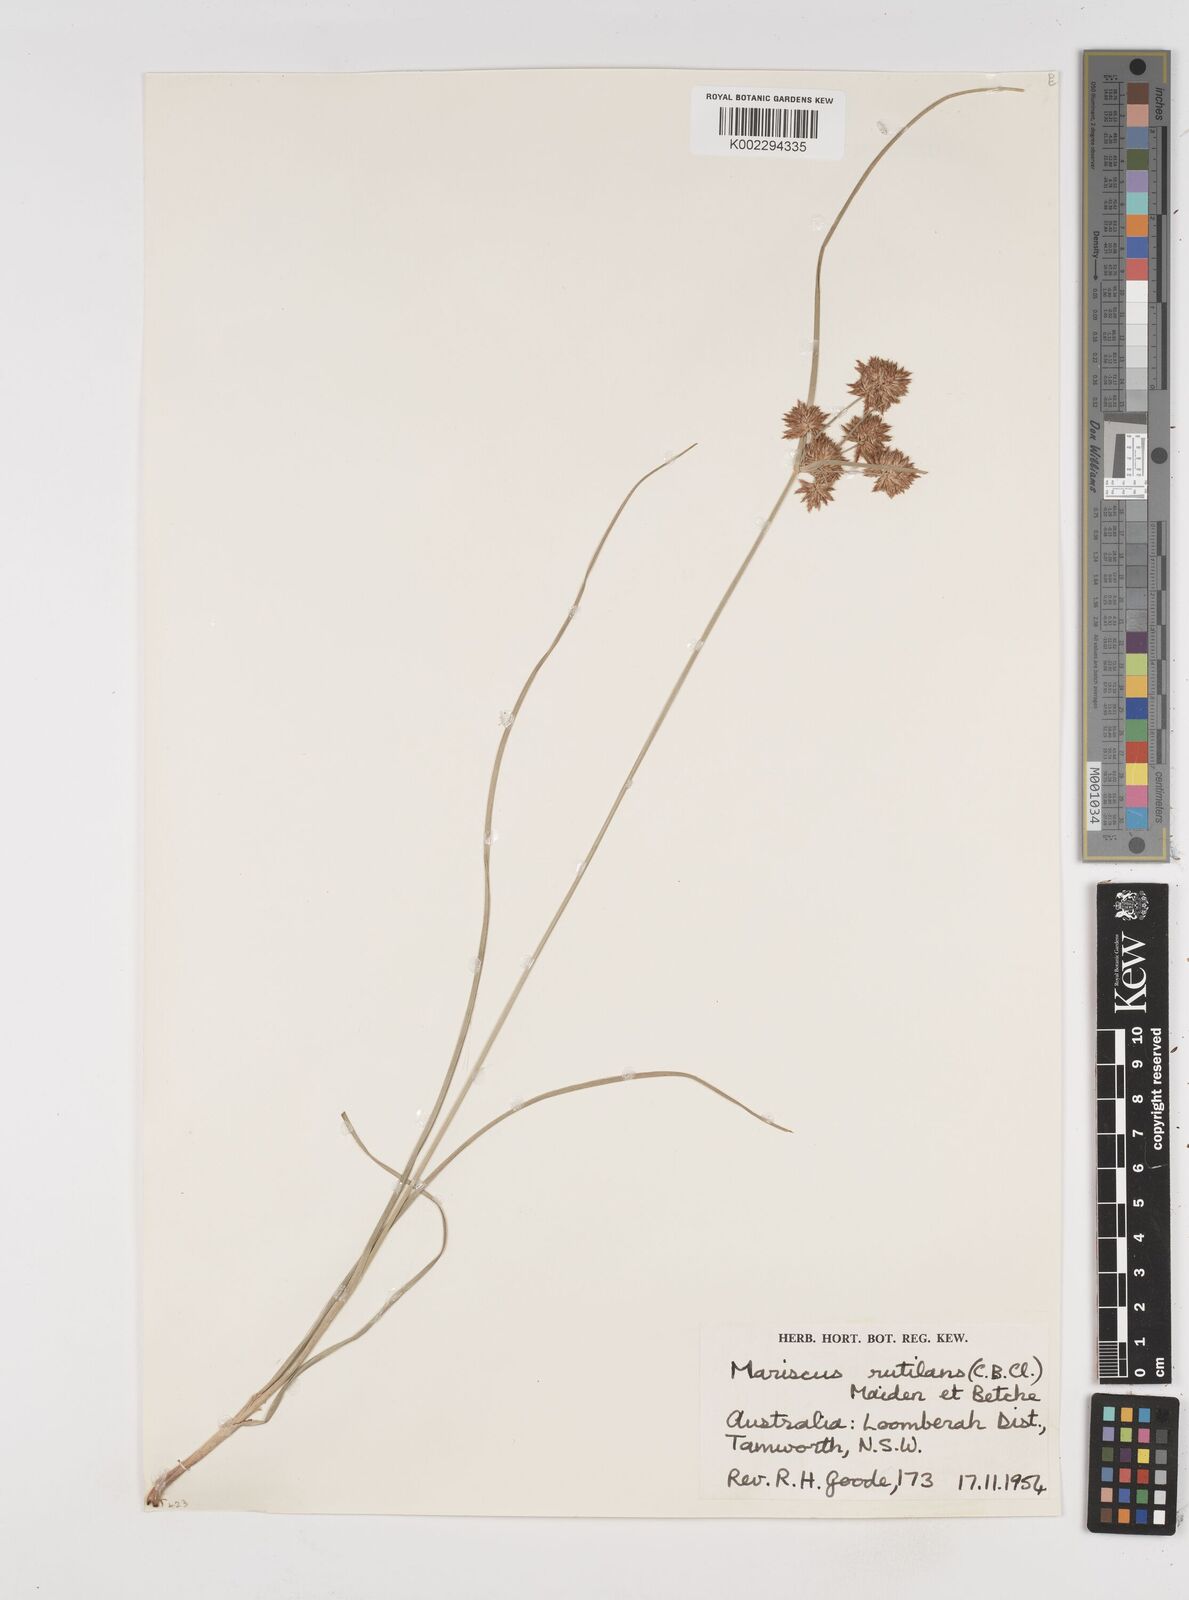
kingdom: Plantae
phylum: Tracheophyta
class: Liliopsida
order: Poales
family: Cyperaceae
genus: Cyperus
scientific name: Cyperus lhotskyanus
